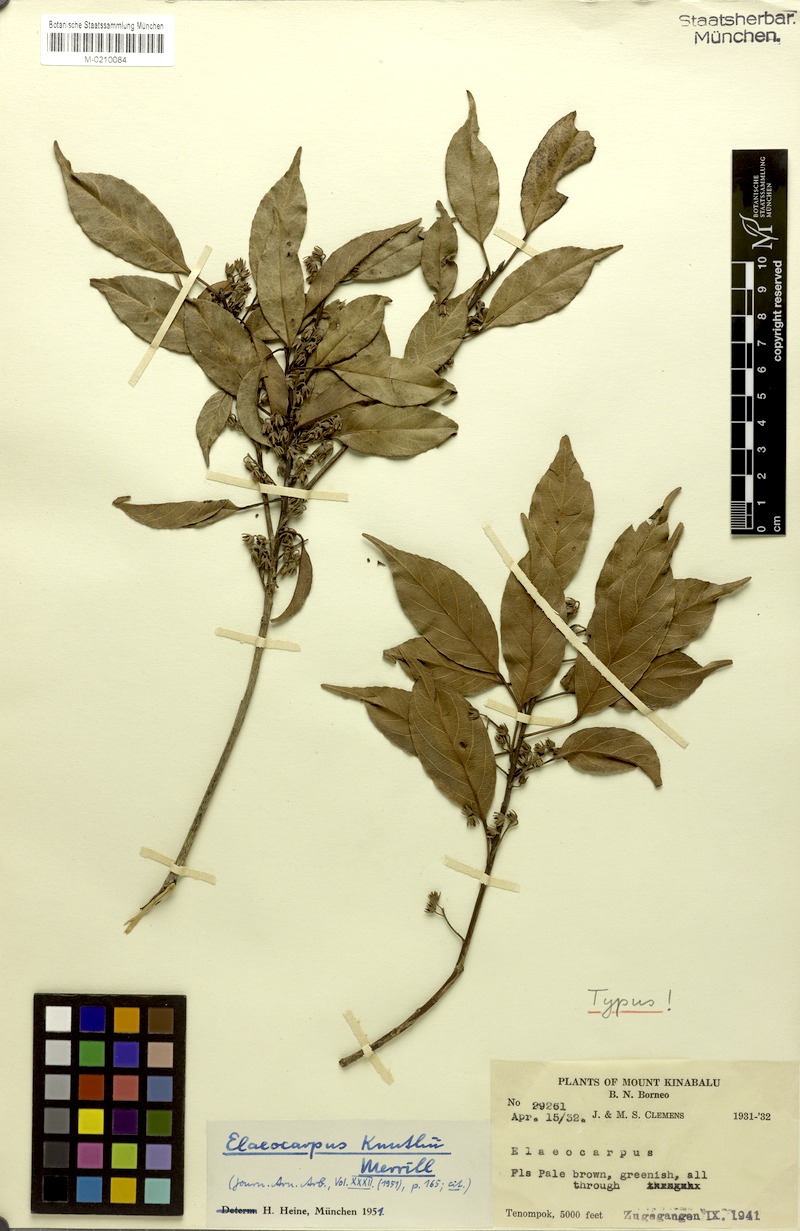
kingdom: Plantae
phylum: Tracheophyta
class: Magnoliopsida
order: Oxalidales
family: Elaeocarpaceae
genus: Elaeocarpus
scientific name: Elaeocarpus knuthii
